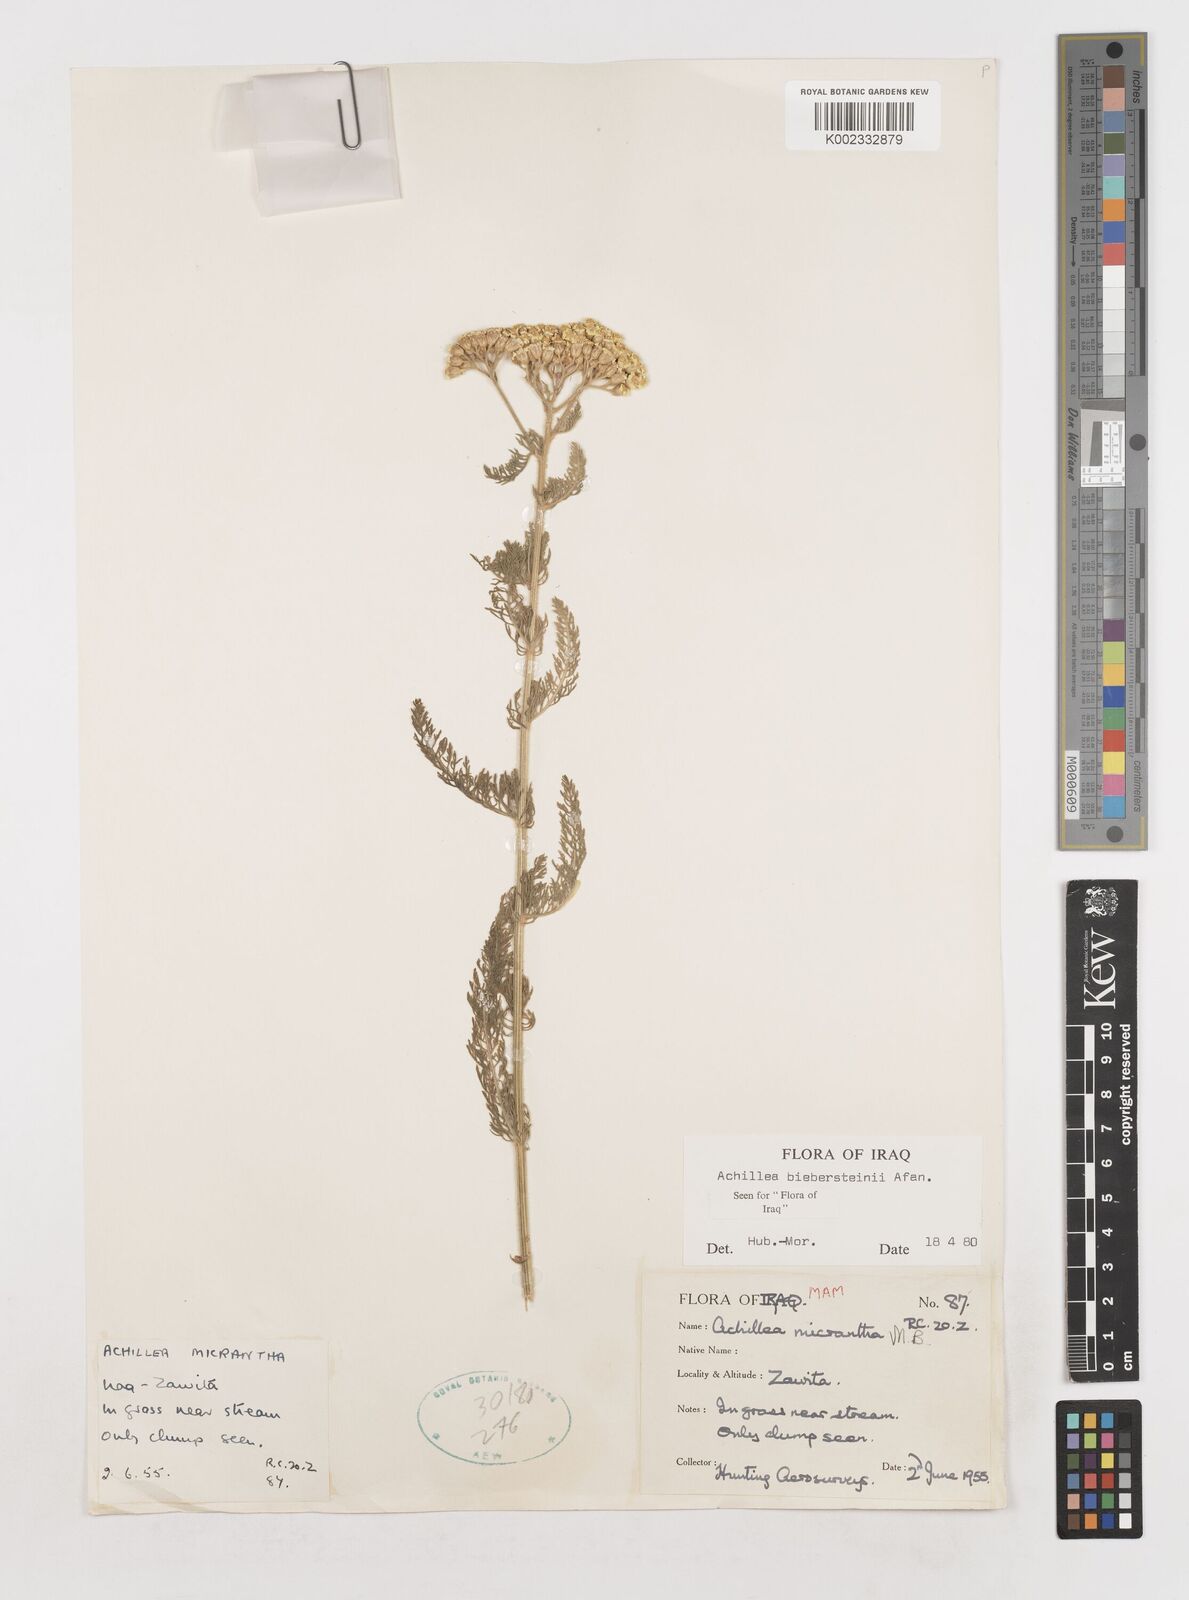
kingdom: Plantae
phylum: Tracheophyta
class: Magnoliopsida
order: Asterales
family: Asteraceae
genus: Achillea
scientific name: Achillea arabica
